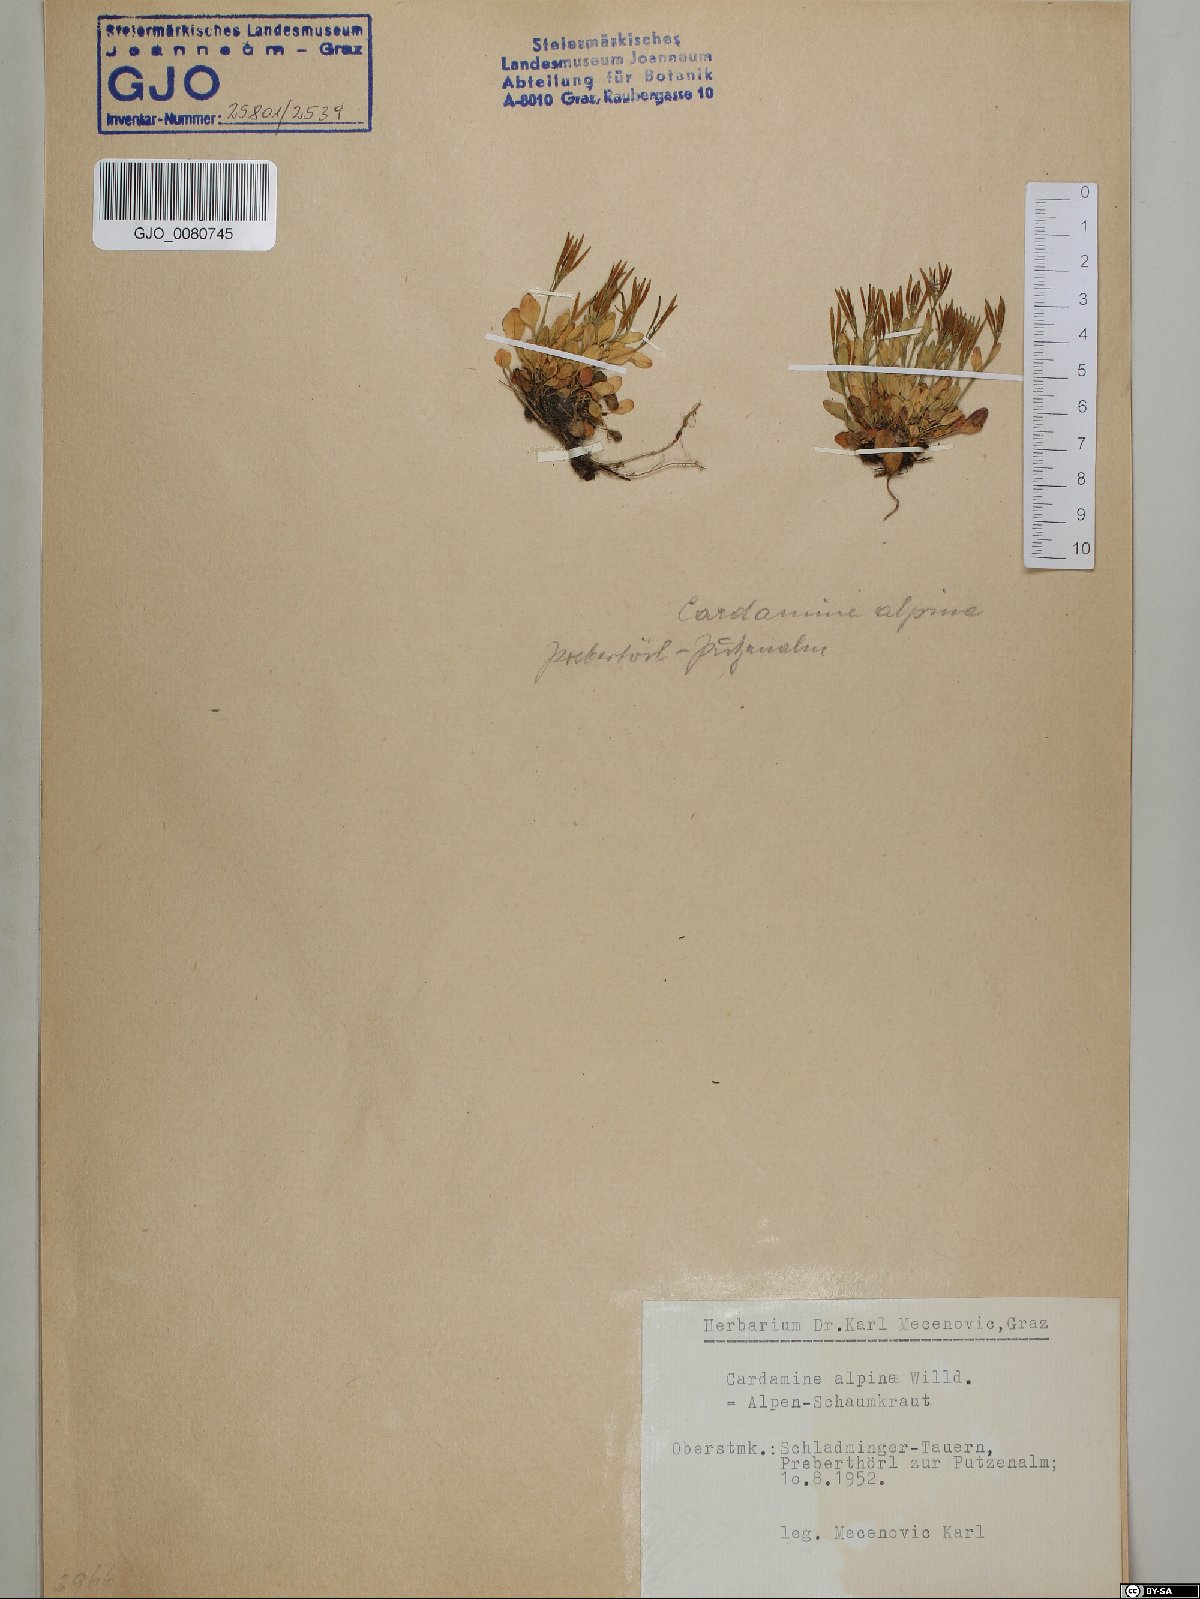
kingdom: Plantae
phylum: Tracheophyta
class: Magnoliopsida
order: Brassicales
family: Brassicaceae
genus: Cardamine
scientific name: Cardamine bellidifolia
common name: Alpine bittercress
